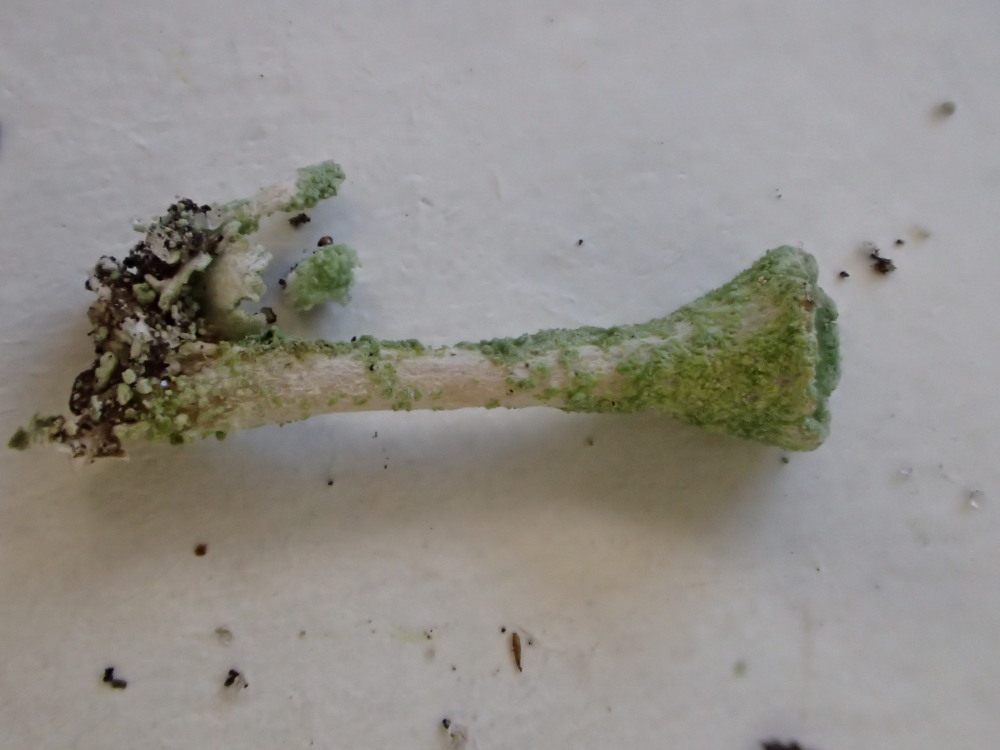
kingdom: Fungi
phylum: Ascomycota
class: Lecanoromycetes
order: Lecanorales
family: Cladoniaceae
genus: Cladonia
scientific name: Cladonia fimbriata
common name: bleggrøn bægerlav
